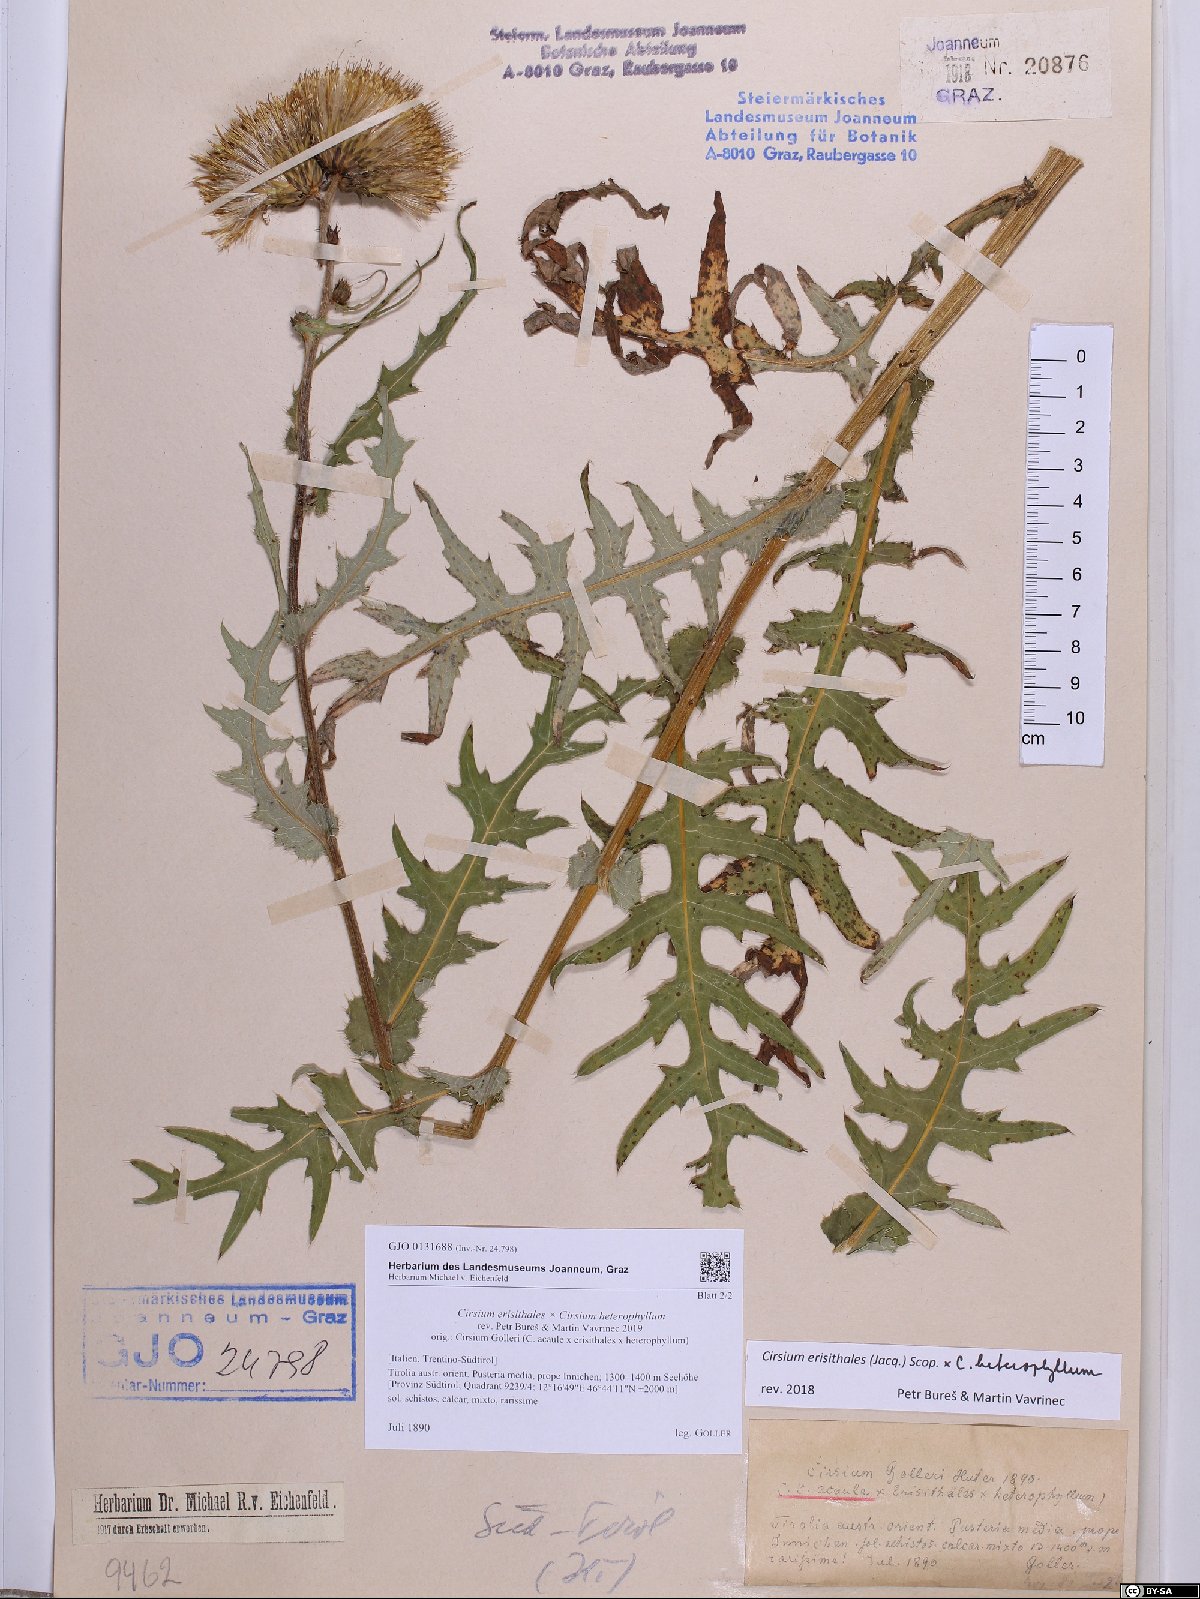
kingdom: Plantae
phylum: Tracheophyta
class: Magnoliopsida
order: Asterales
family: Asteraceae
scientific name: Asteraceae
